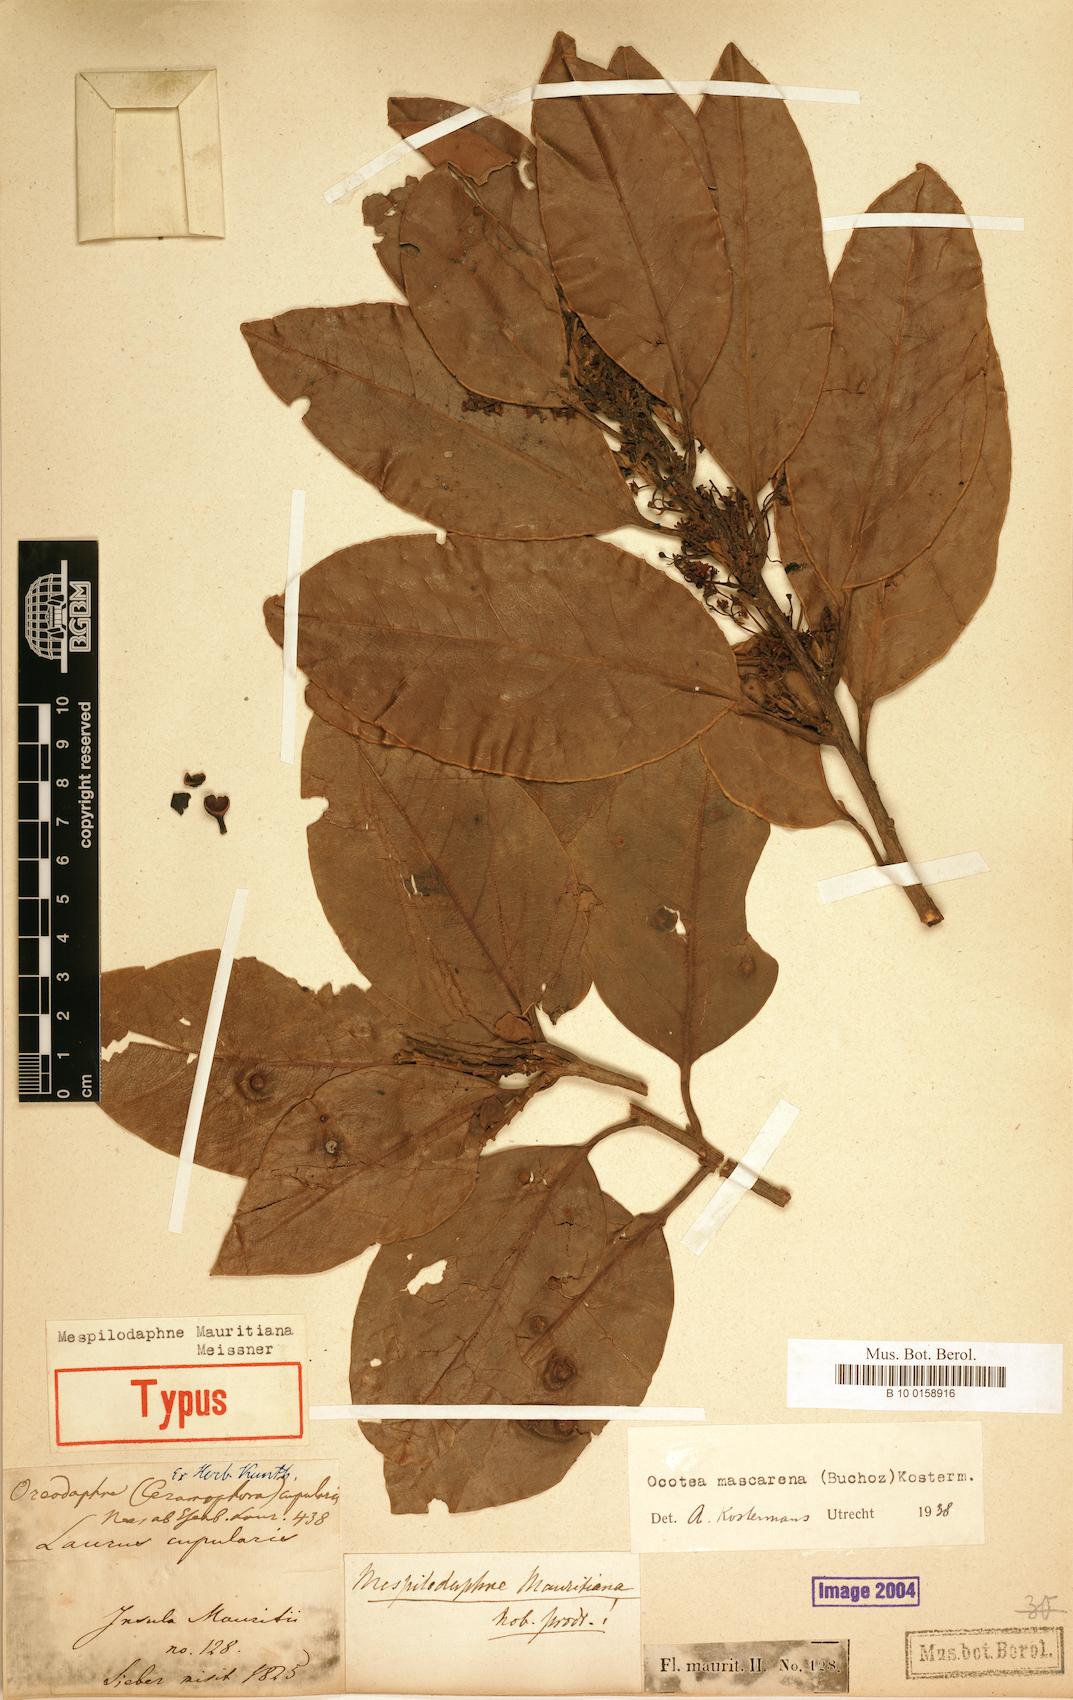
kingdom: Plantae
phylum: Tracheophyta
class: Magnoliopsida
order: Laurales
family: Lauraceae
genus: Mespilodaphne
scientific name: Mespilodaphne cupularis
